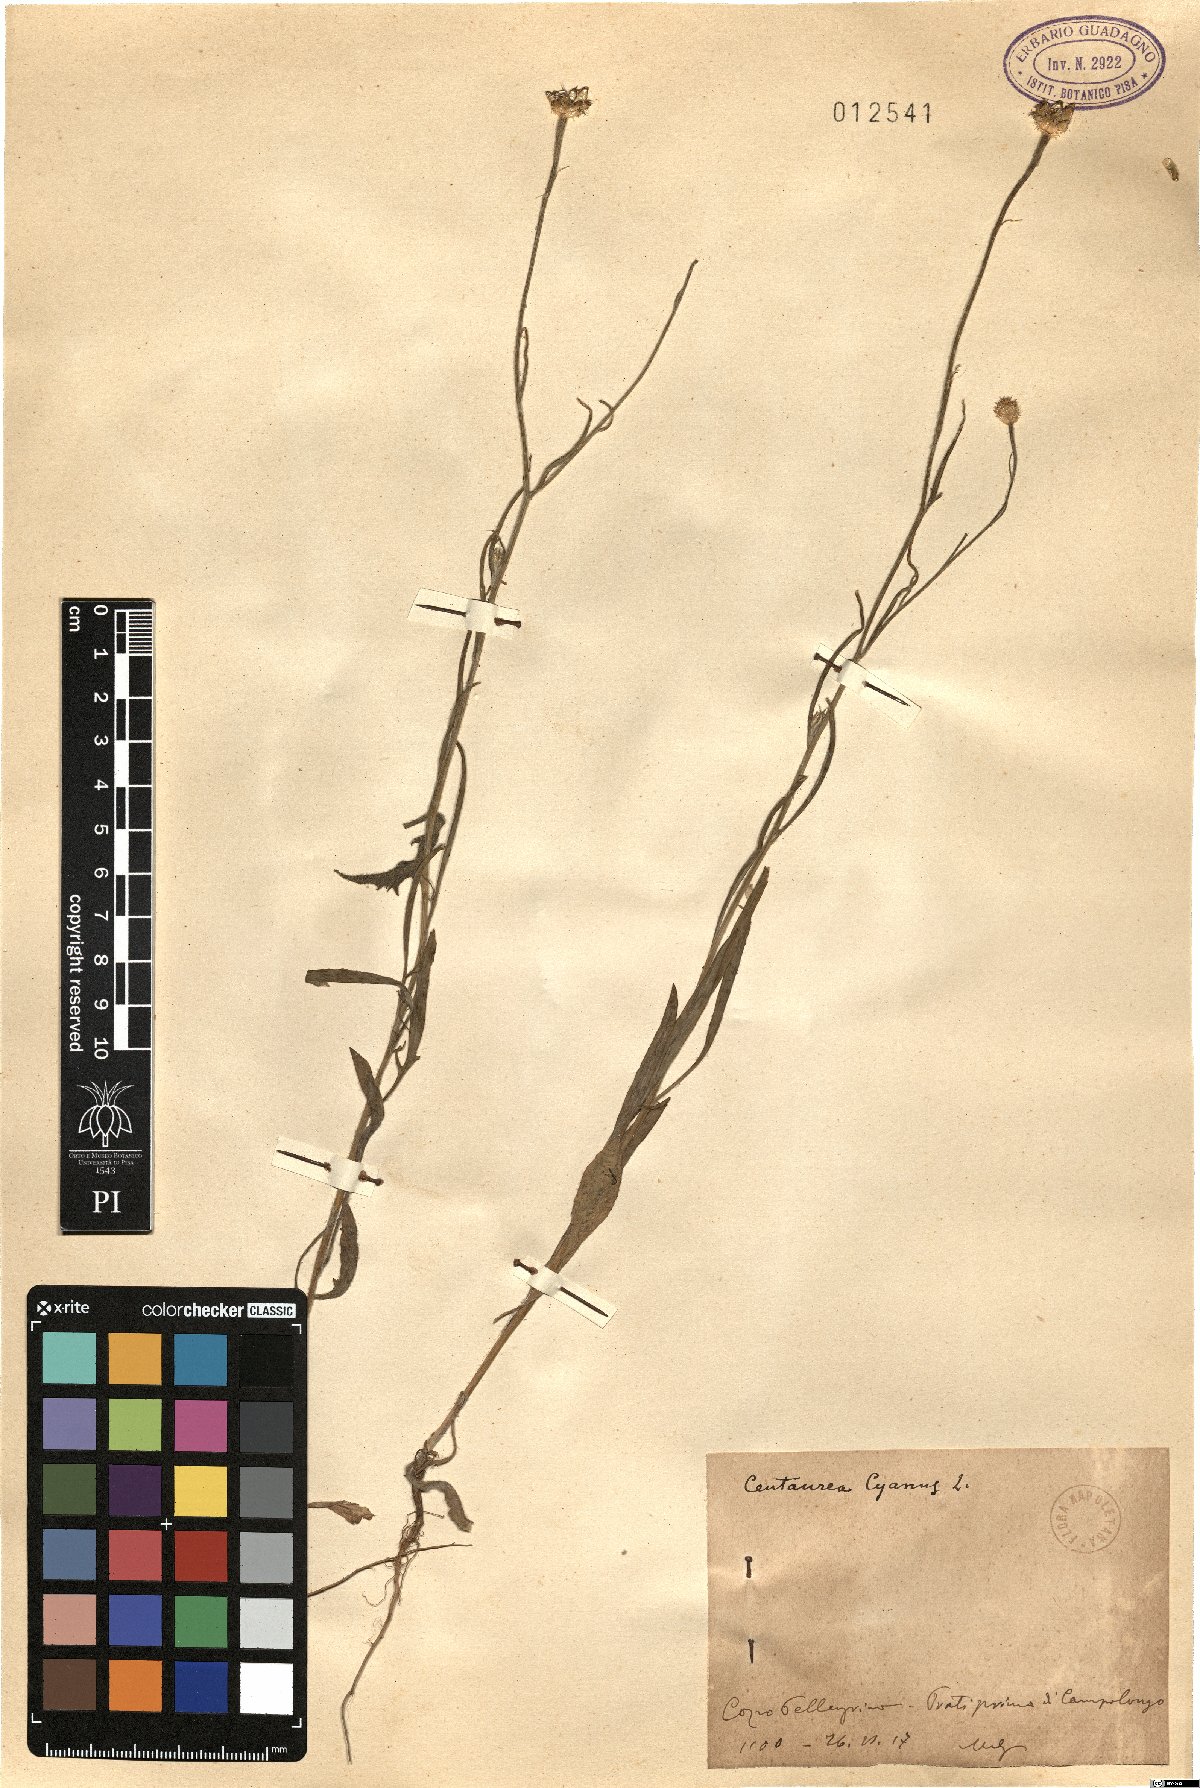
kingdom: Plantae
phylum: Tracheophyta
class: Magnoliopsida
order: Asterales
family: Asteraceae
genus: Centaurea
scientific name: Centaurea cyanus
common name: Cornflower
